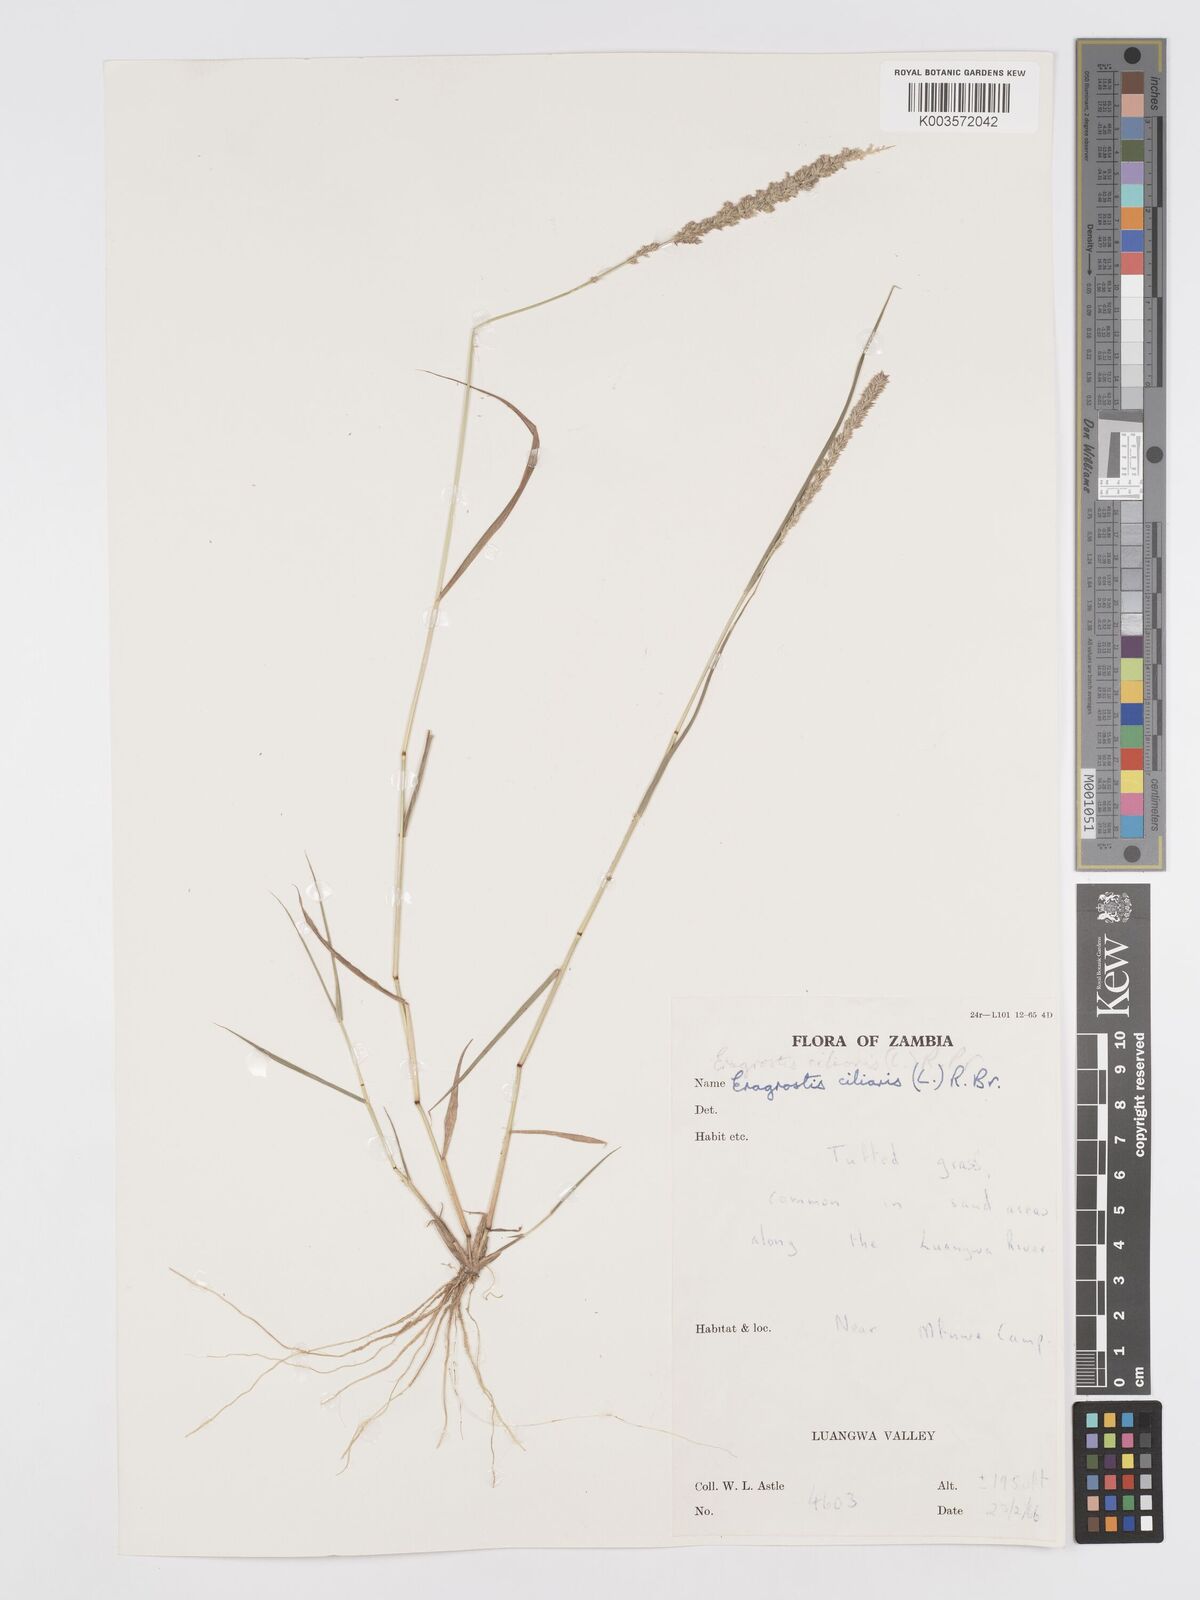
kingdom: Plantae
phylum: Tracheophyta
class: Liliopsida
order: Poales
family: Poaceae
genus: Eragrostis
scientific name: Eragrostis ciliaris
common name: Gophertail lovegrass
